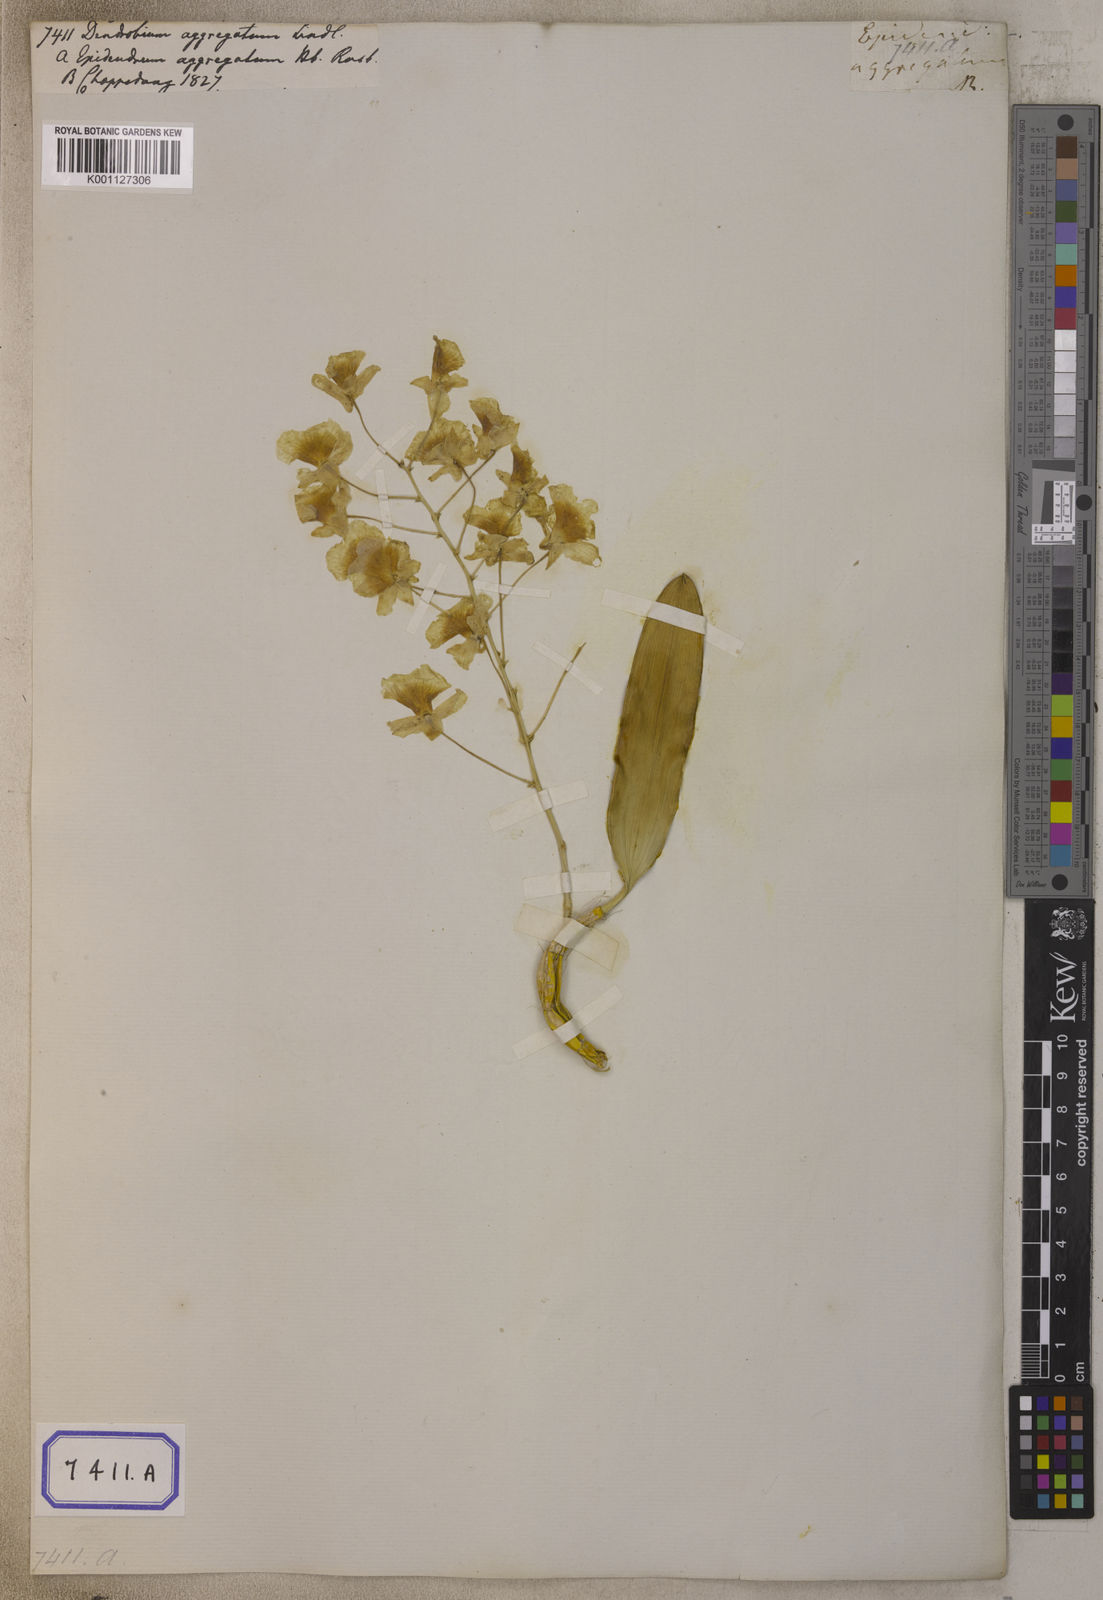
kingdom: Plantae
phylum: Tracheophyta
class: Liliopsida
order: Asparagales
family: Orchidaceae
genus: Dendrobium
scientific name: Dendrobium lindleyi
